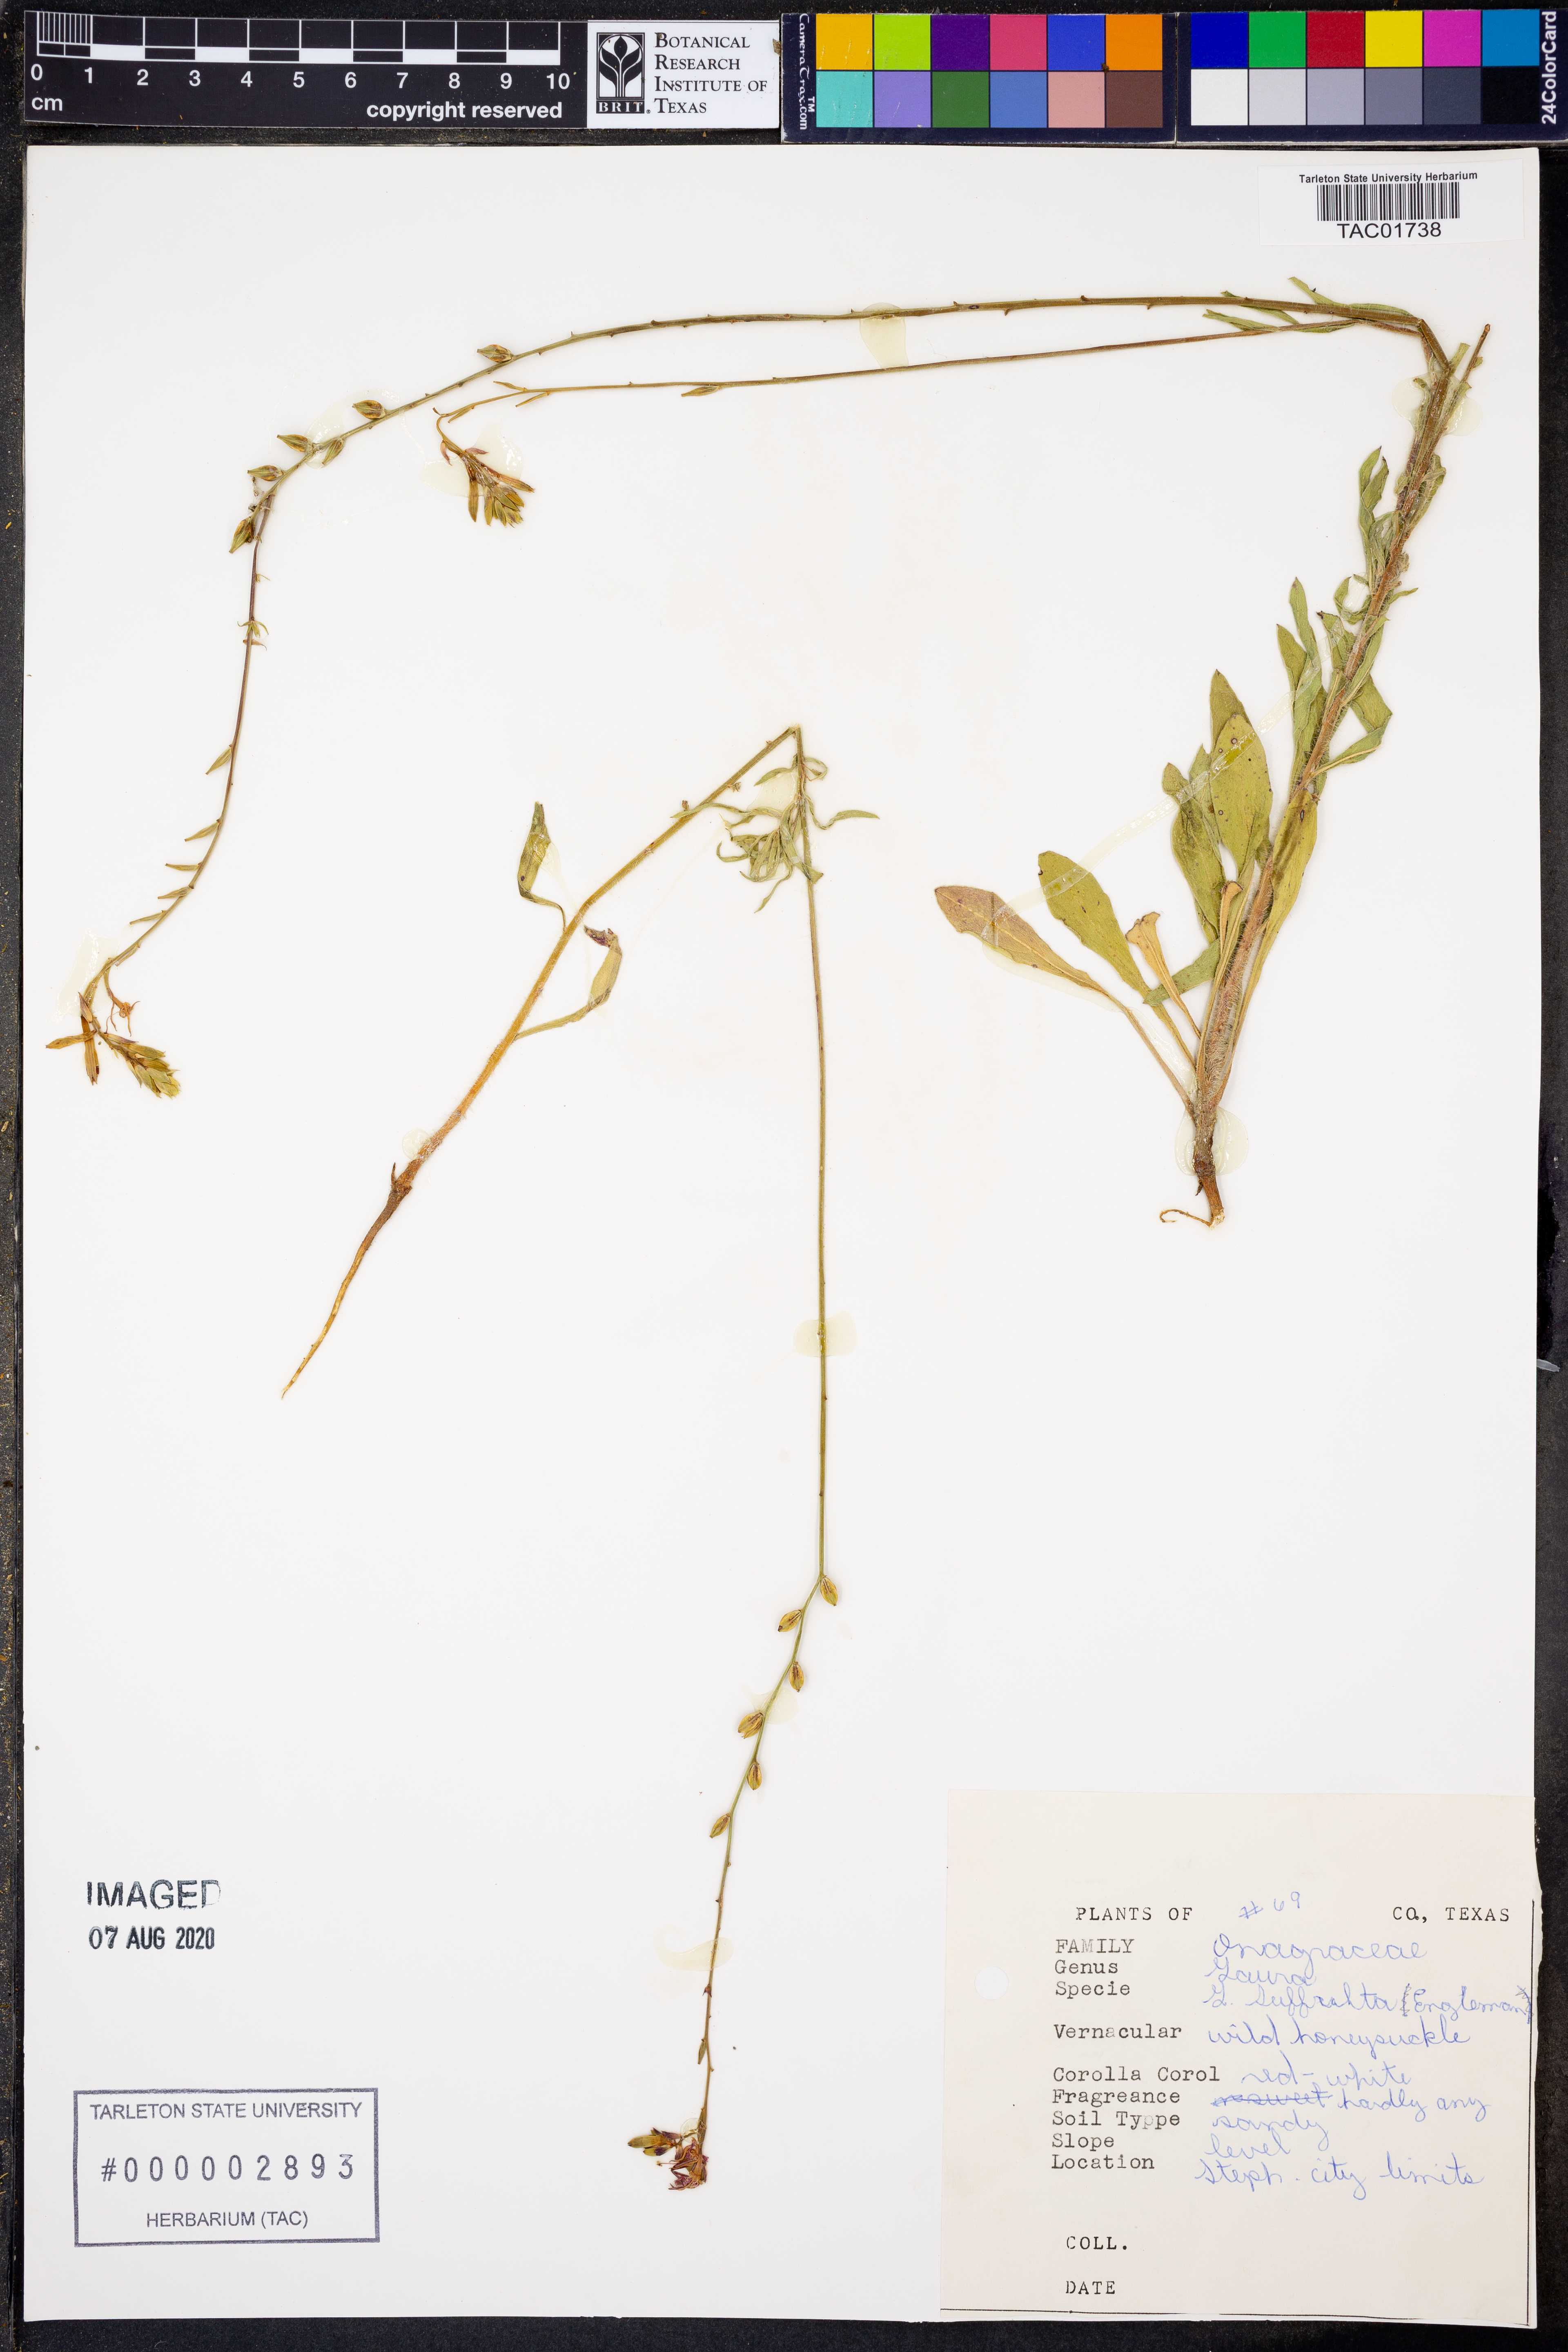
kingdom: Plantae
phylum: Tracheophyta
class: Magnoliopsida
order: Myrtales
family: Onagraceae
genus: Oenothera
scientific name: Oenothera Gaura suffulta
